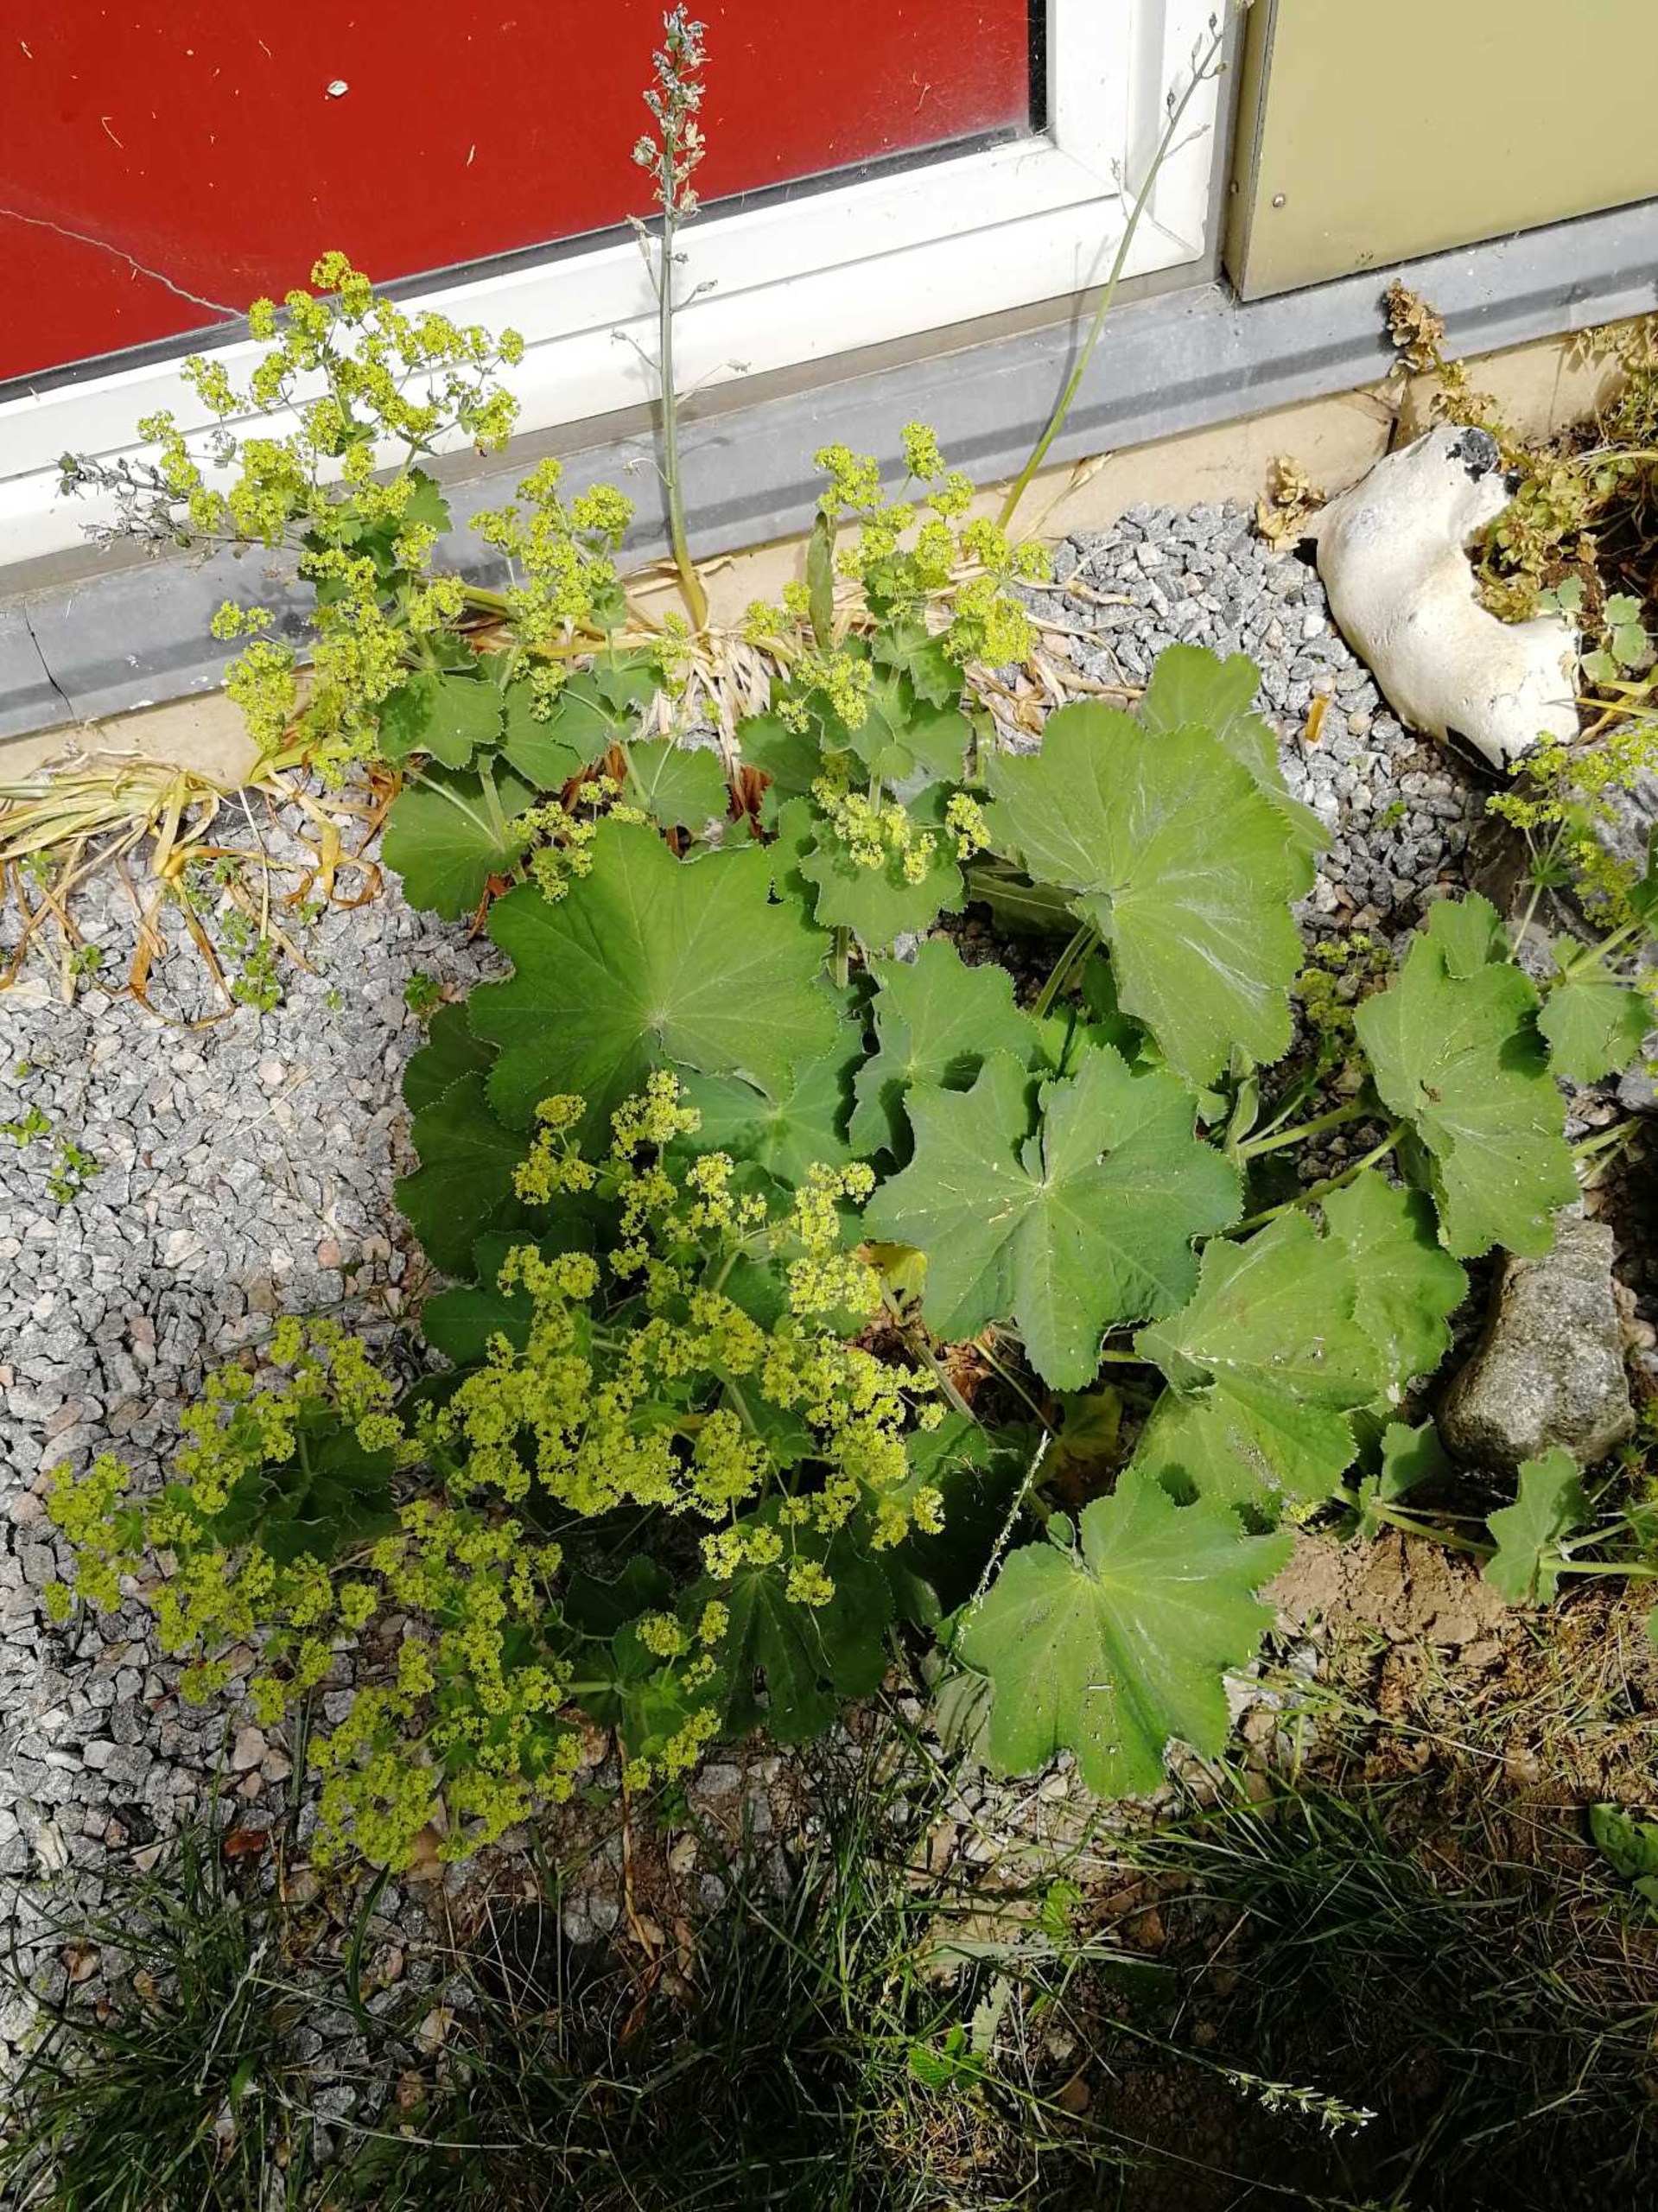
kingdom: Plantae
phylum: Tracheophyta
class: Magnoliopsida
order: Rosales
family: Rosaceae
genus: Alchemilla
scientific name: Alchemilla mollis
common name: Lådden løvefod
